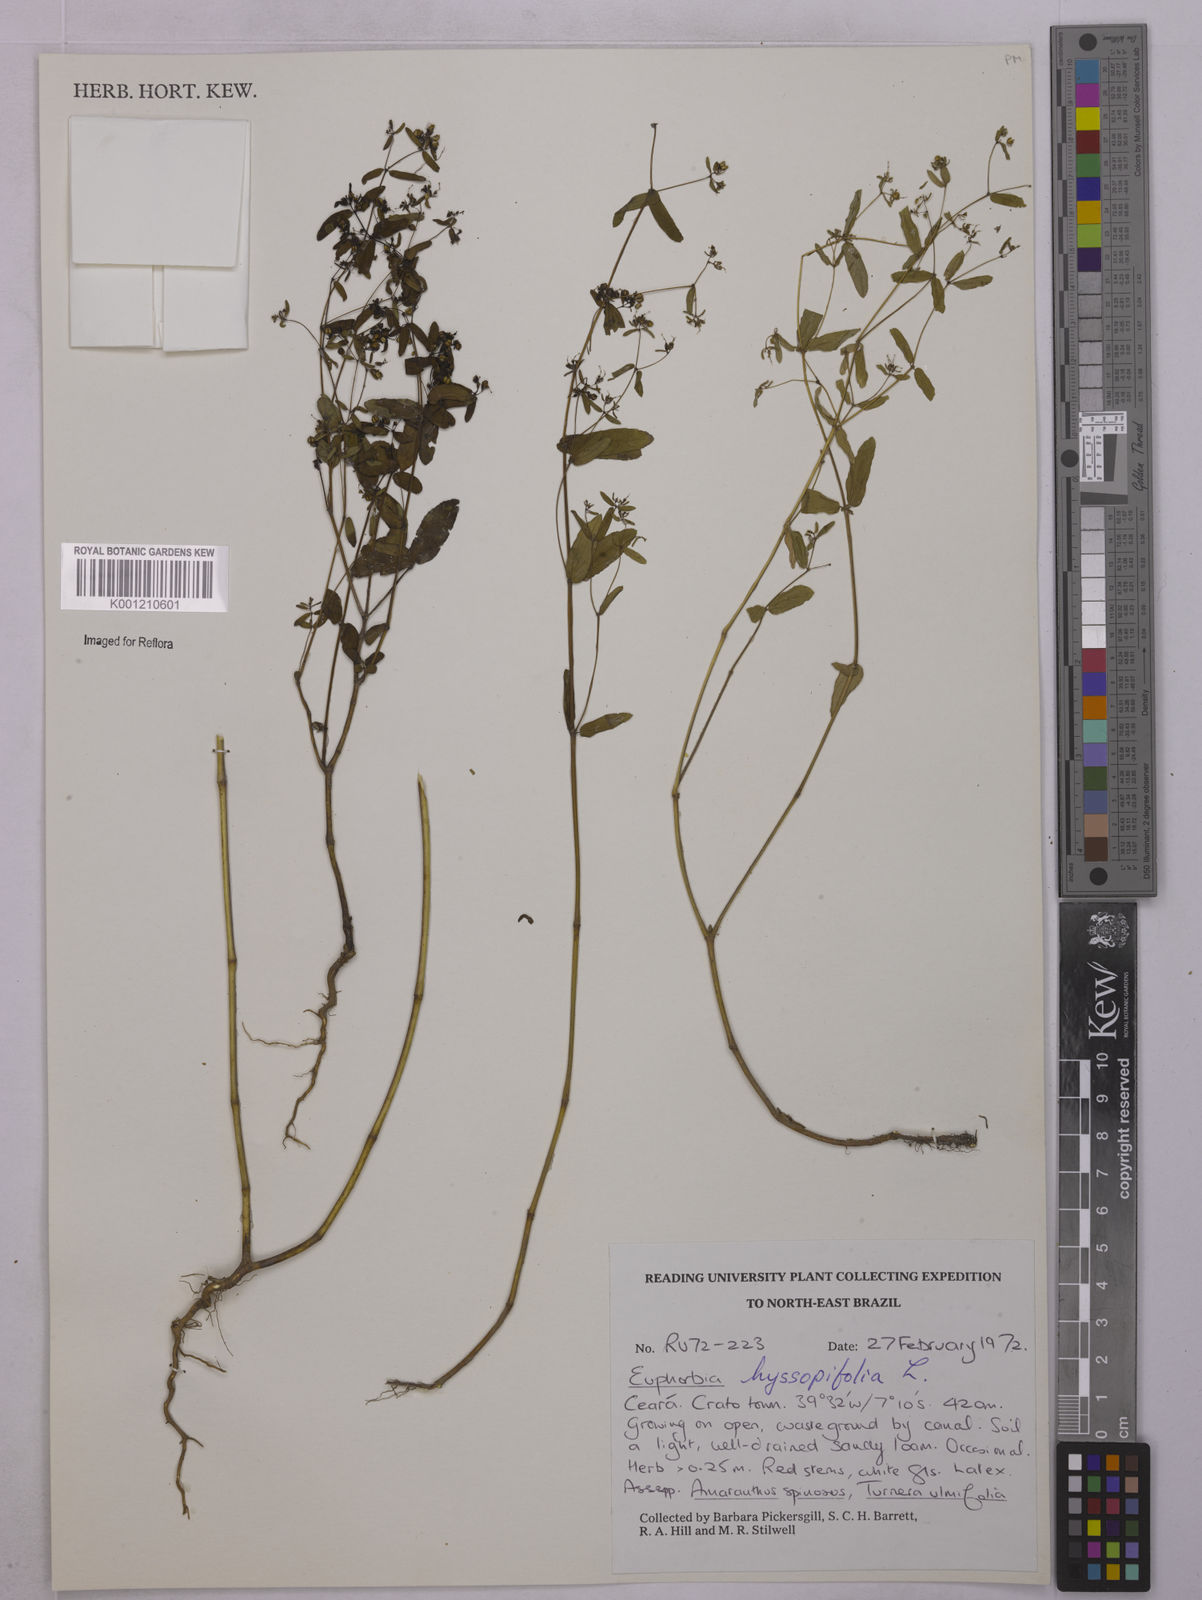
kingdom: Plantae
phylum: Tracheophyta
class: Magnoliopsida
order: Malpighiales
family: Euphorbiaceae
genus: Euphorbia
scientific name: Euphorbia hyssopifolia
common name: Hyssopleaf sandmat
